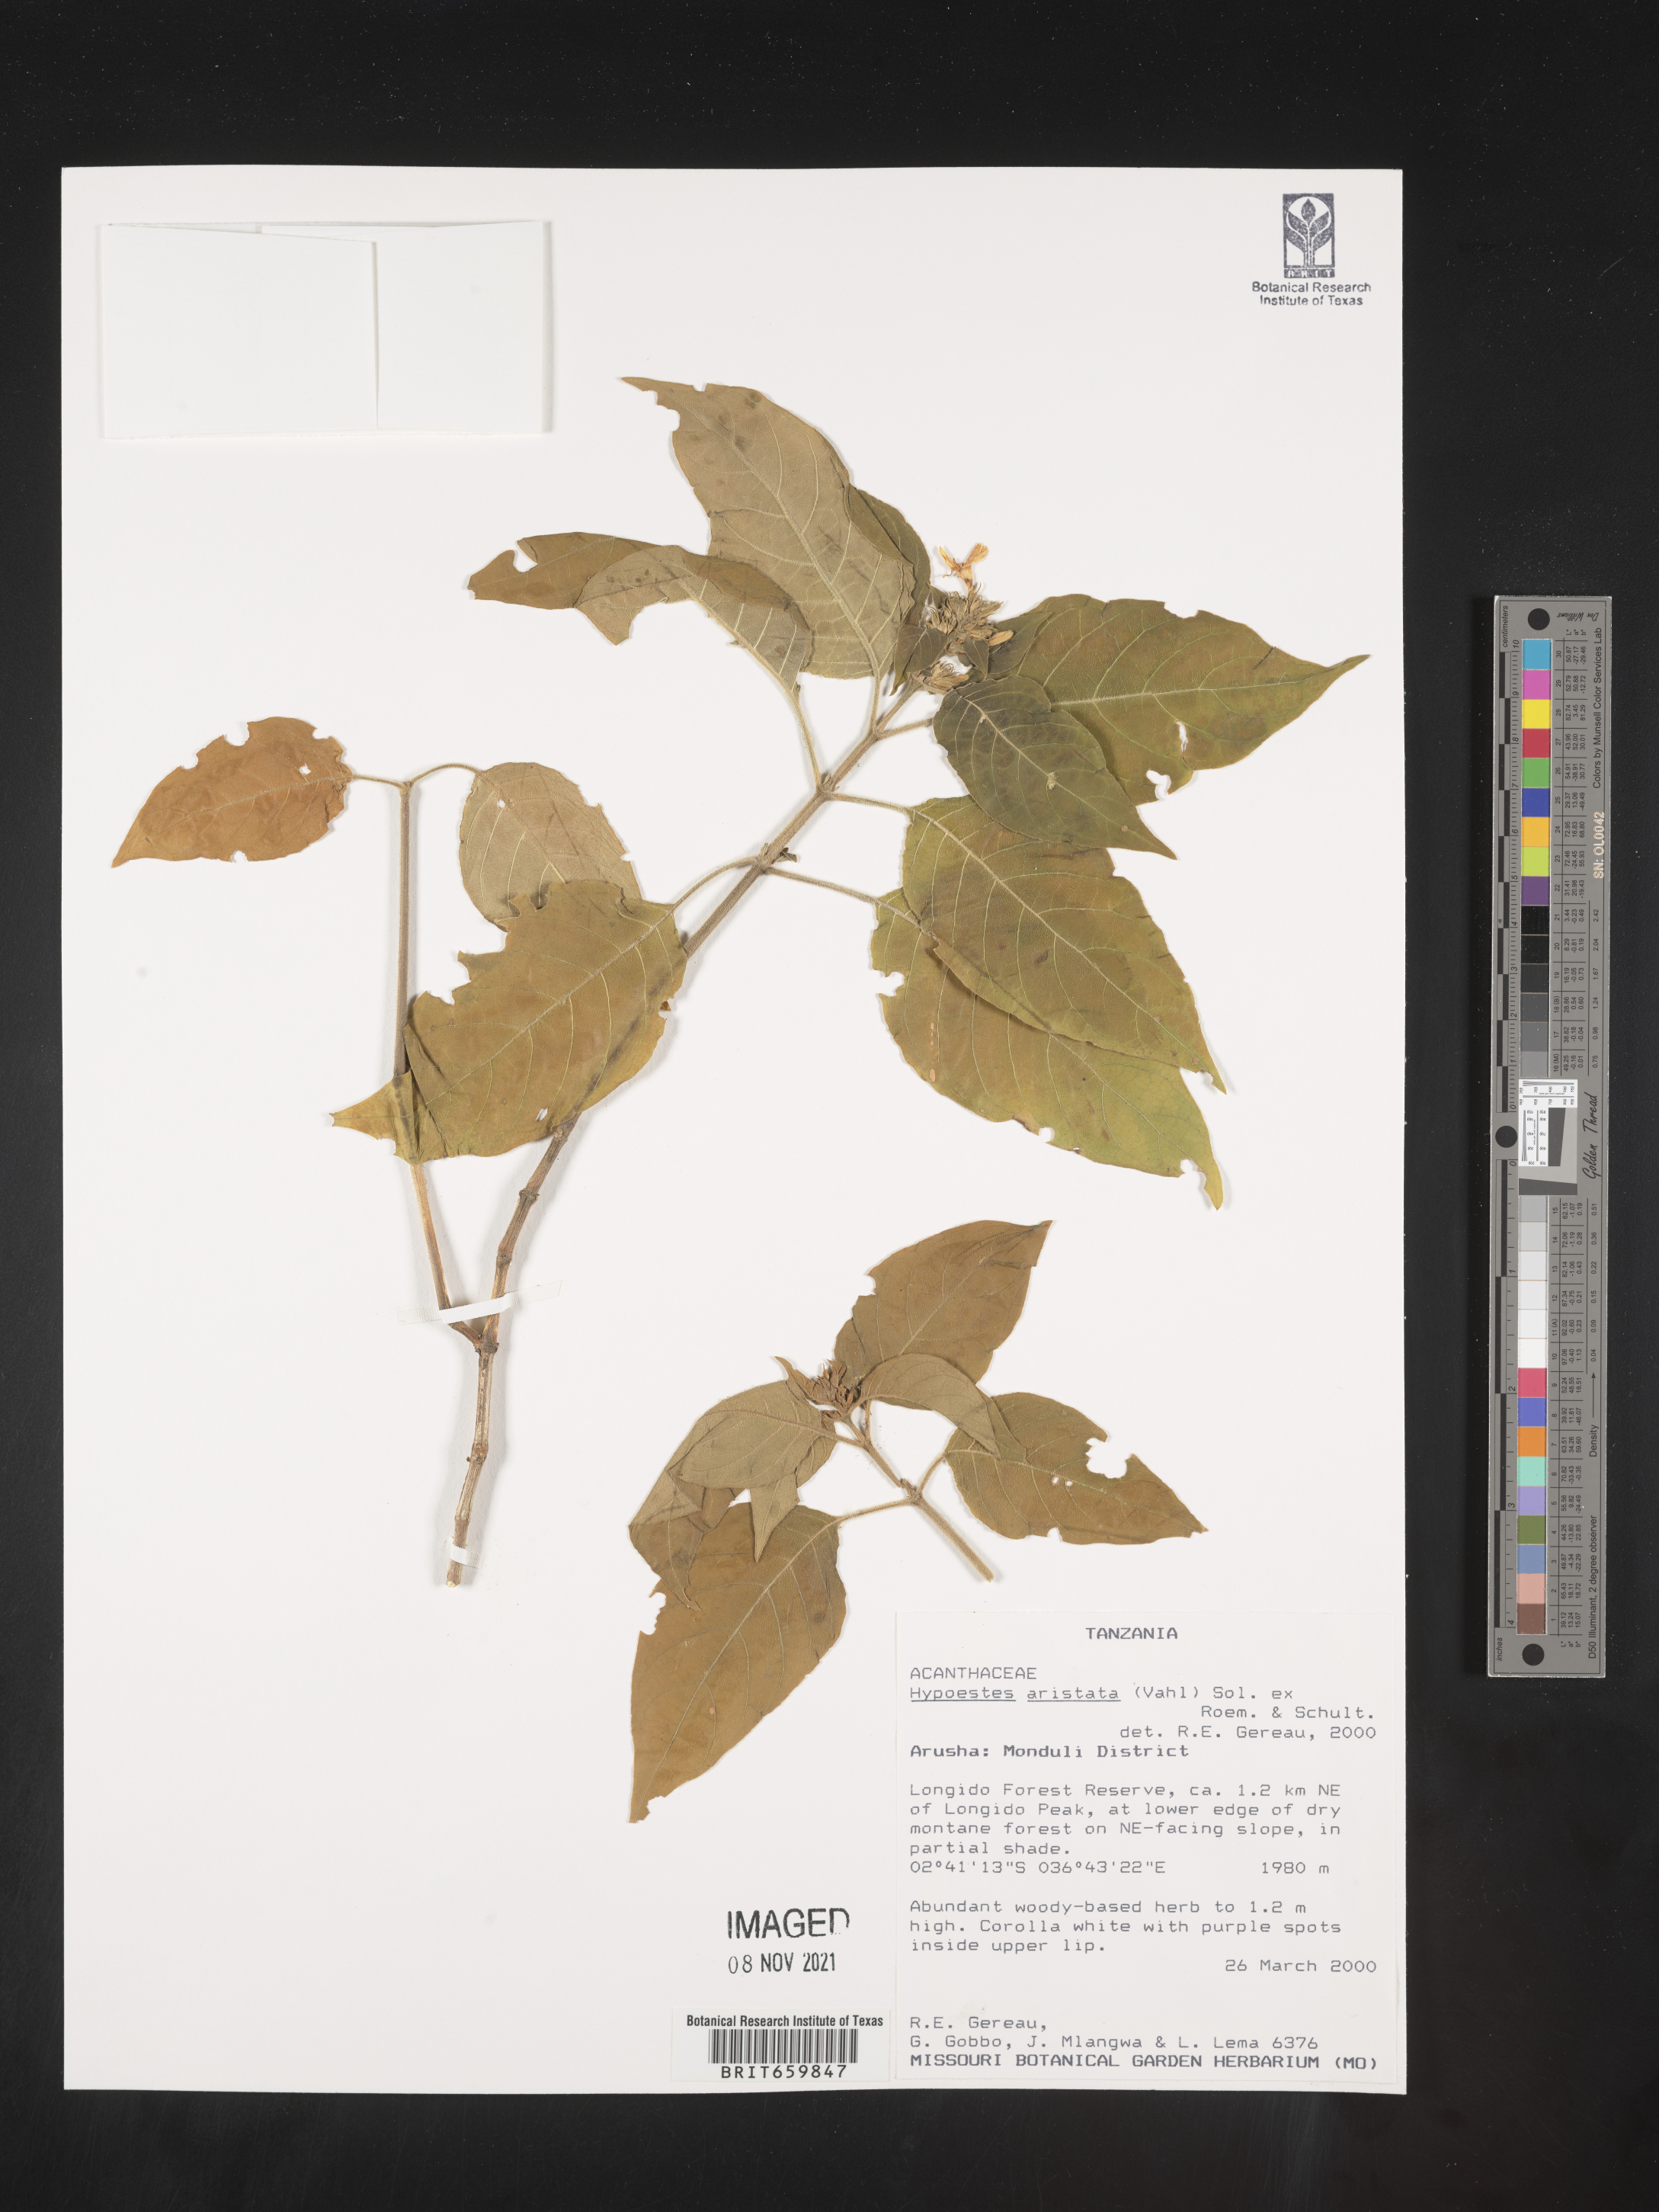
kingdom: Plantae
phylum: Tracheophyta
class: Magnoliopsida
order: Lamiales
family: Acanthaceae
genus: Hypoestes
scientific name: Hypoestes aristata
